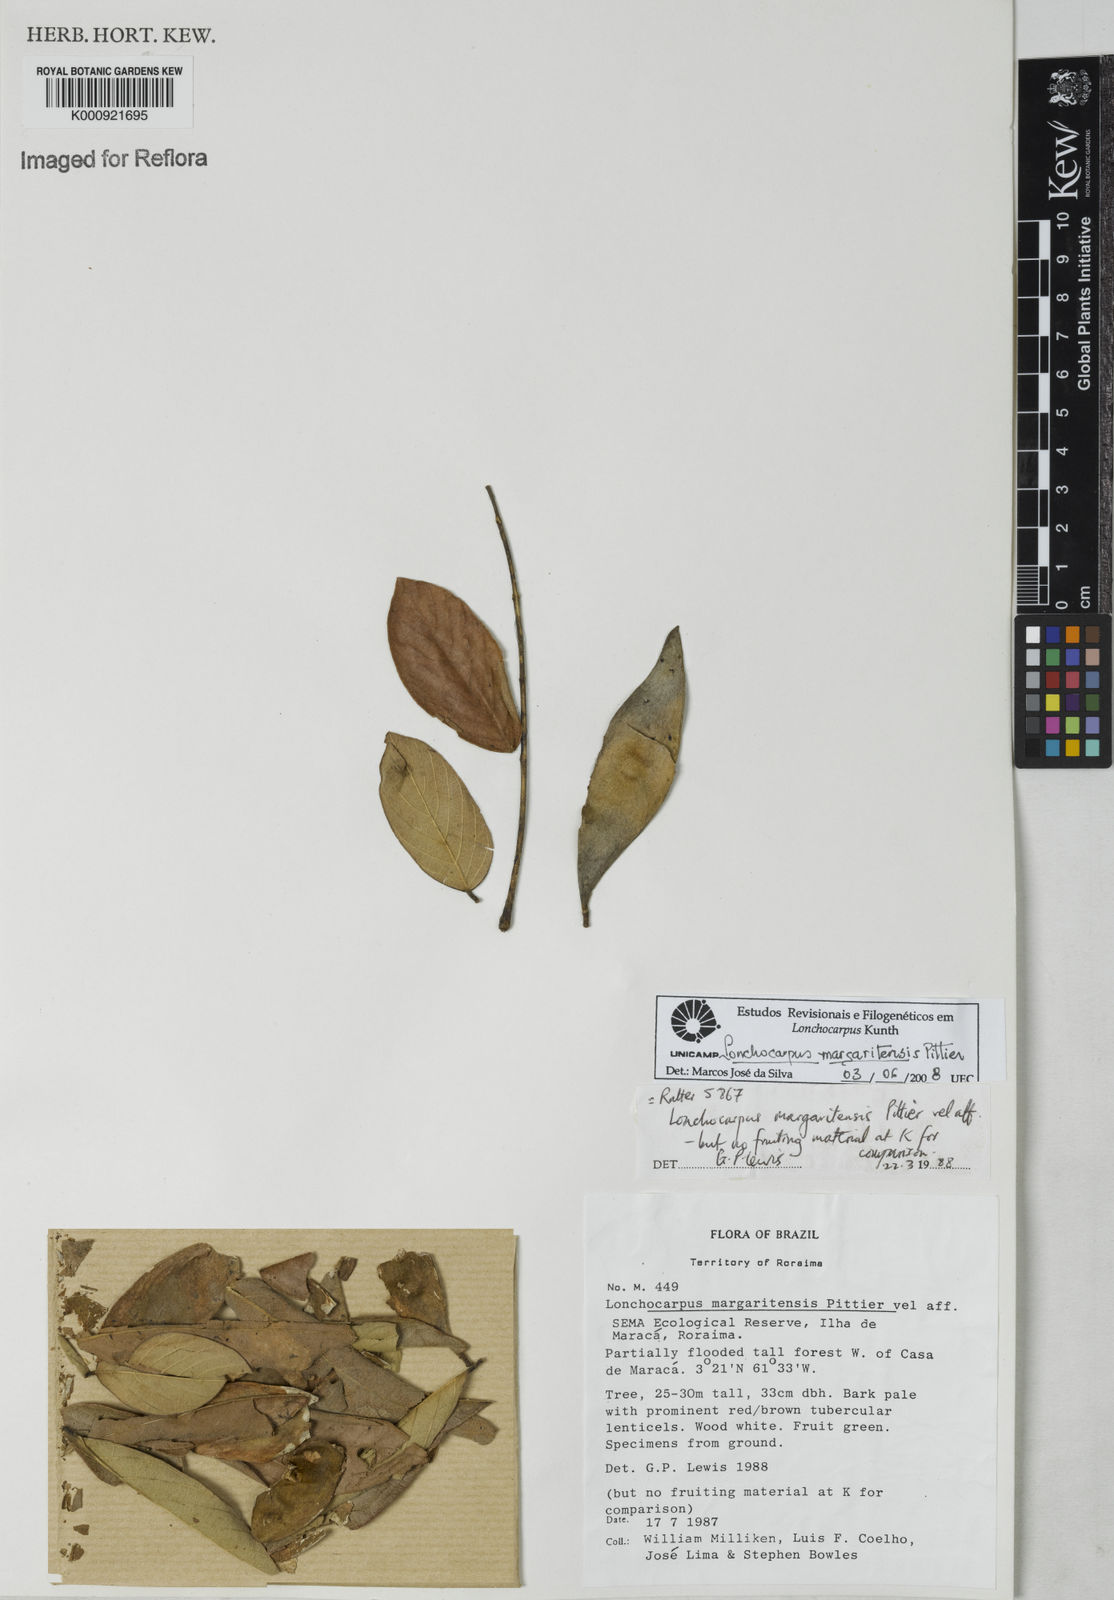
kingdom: Plantae
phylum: Tracheophyta
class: Magnoliopsida
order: Fabales
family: Fabaceae
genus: Lonchocarpus
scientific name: Lonchocarpus hedyosmus
